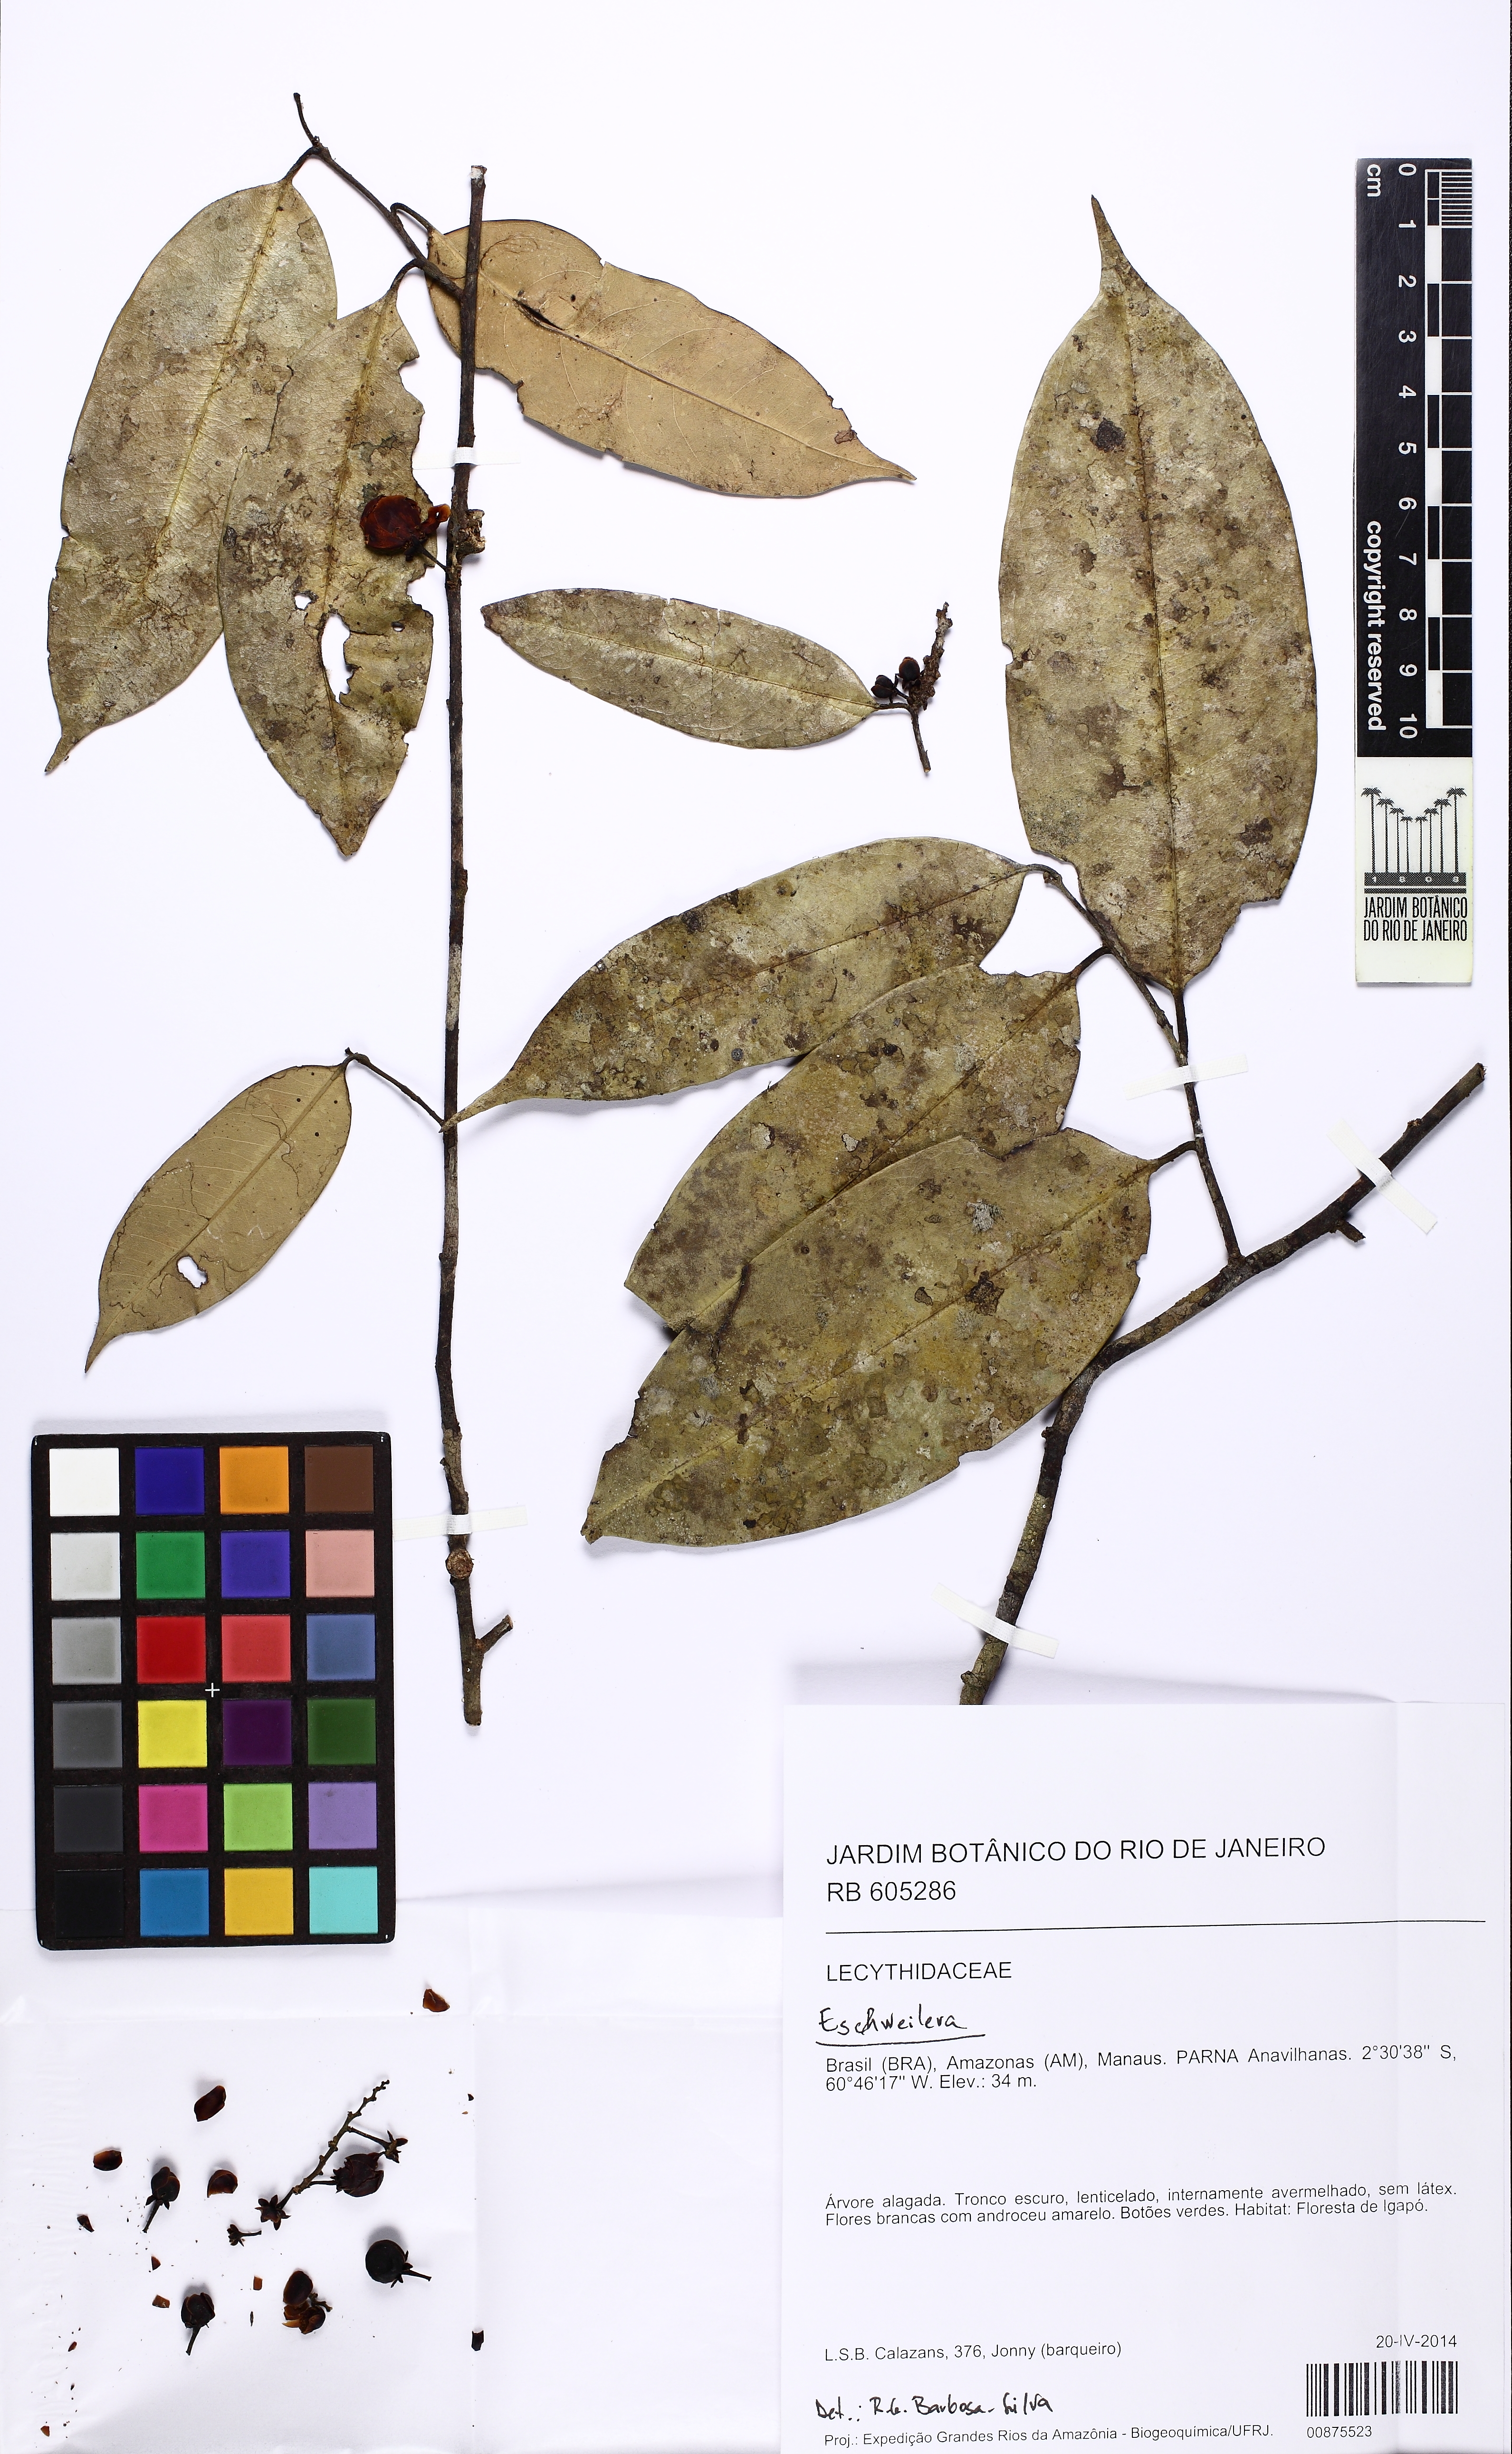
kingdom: Plantae
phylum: Tracheophyta
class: Magnoliopsida
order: Ericales
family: Lecythidaceae
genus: Eschweilera
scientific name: Eschweilera parvifolia
